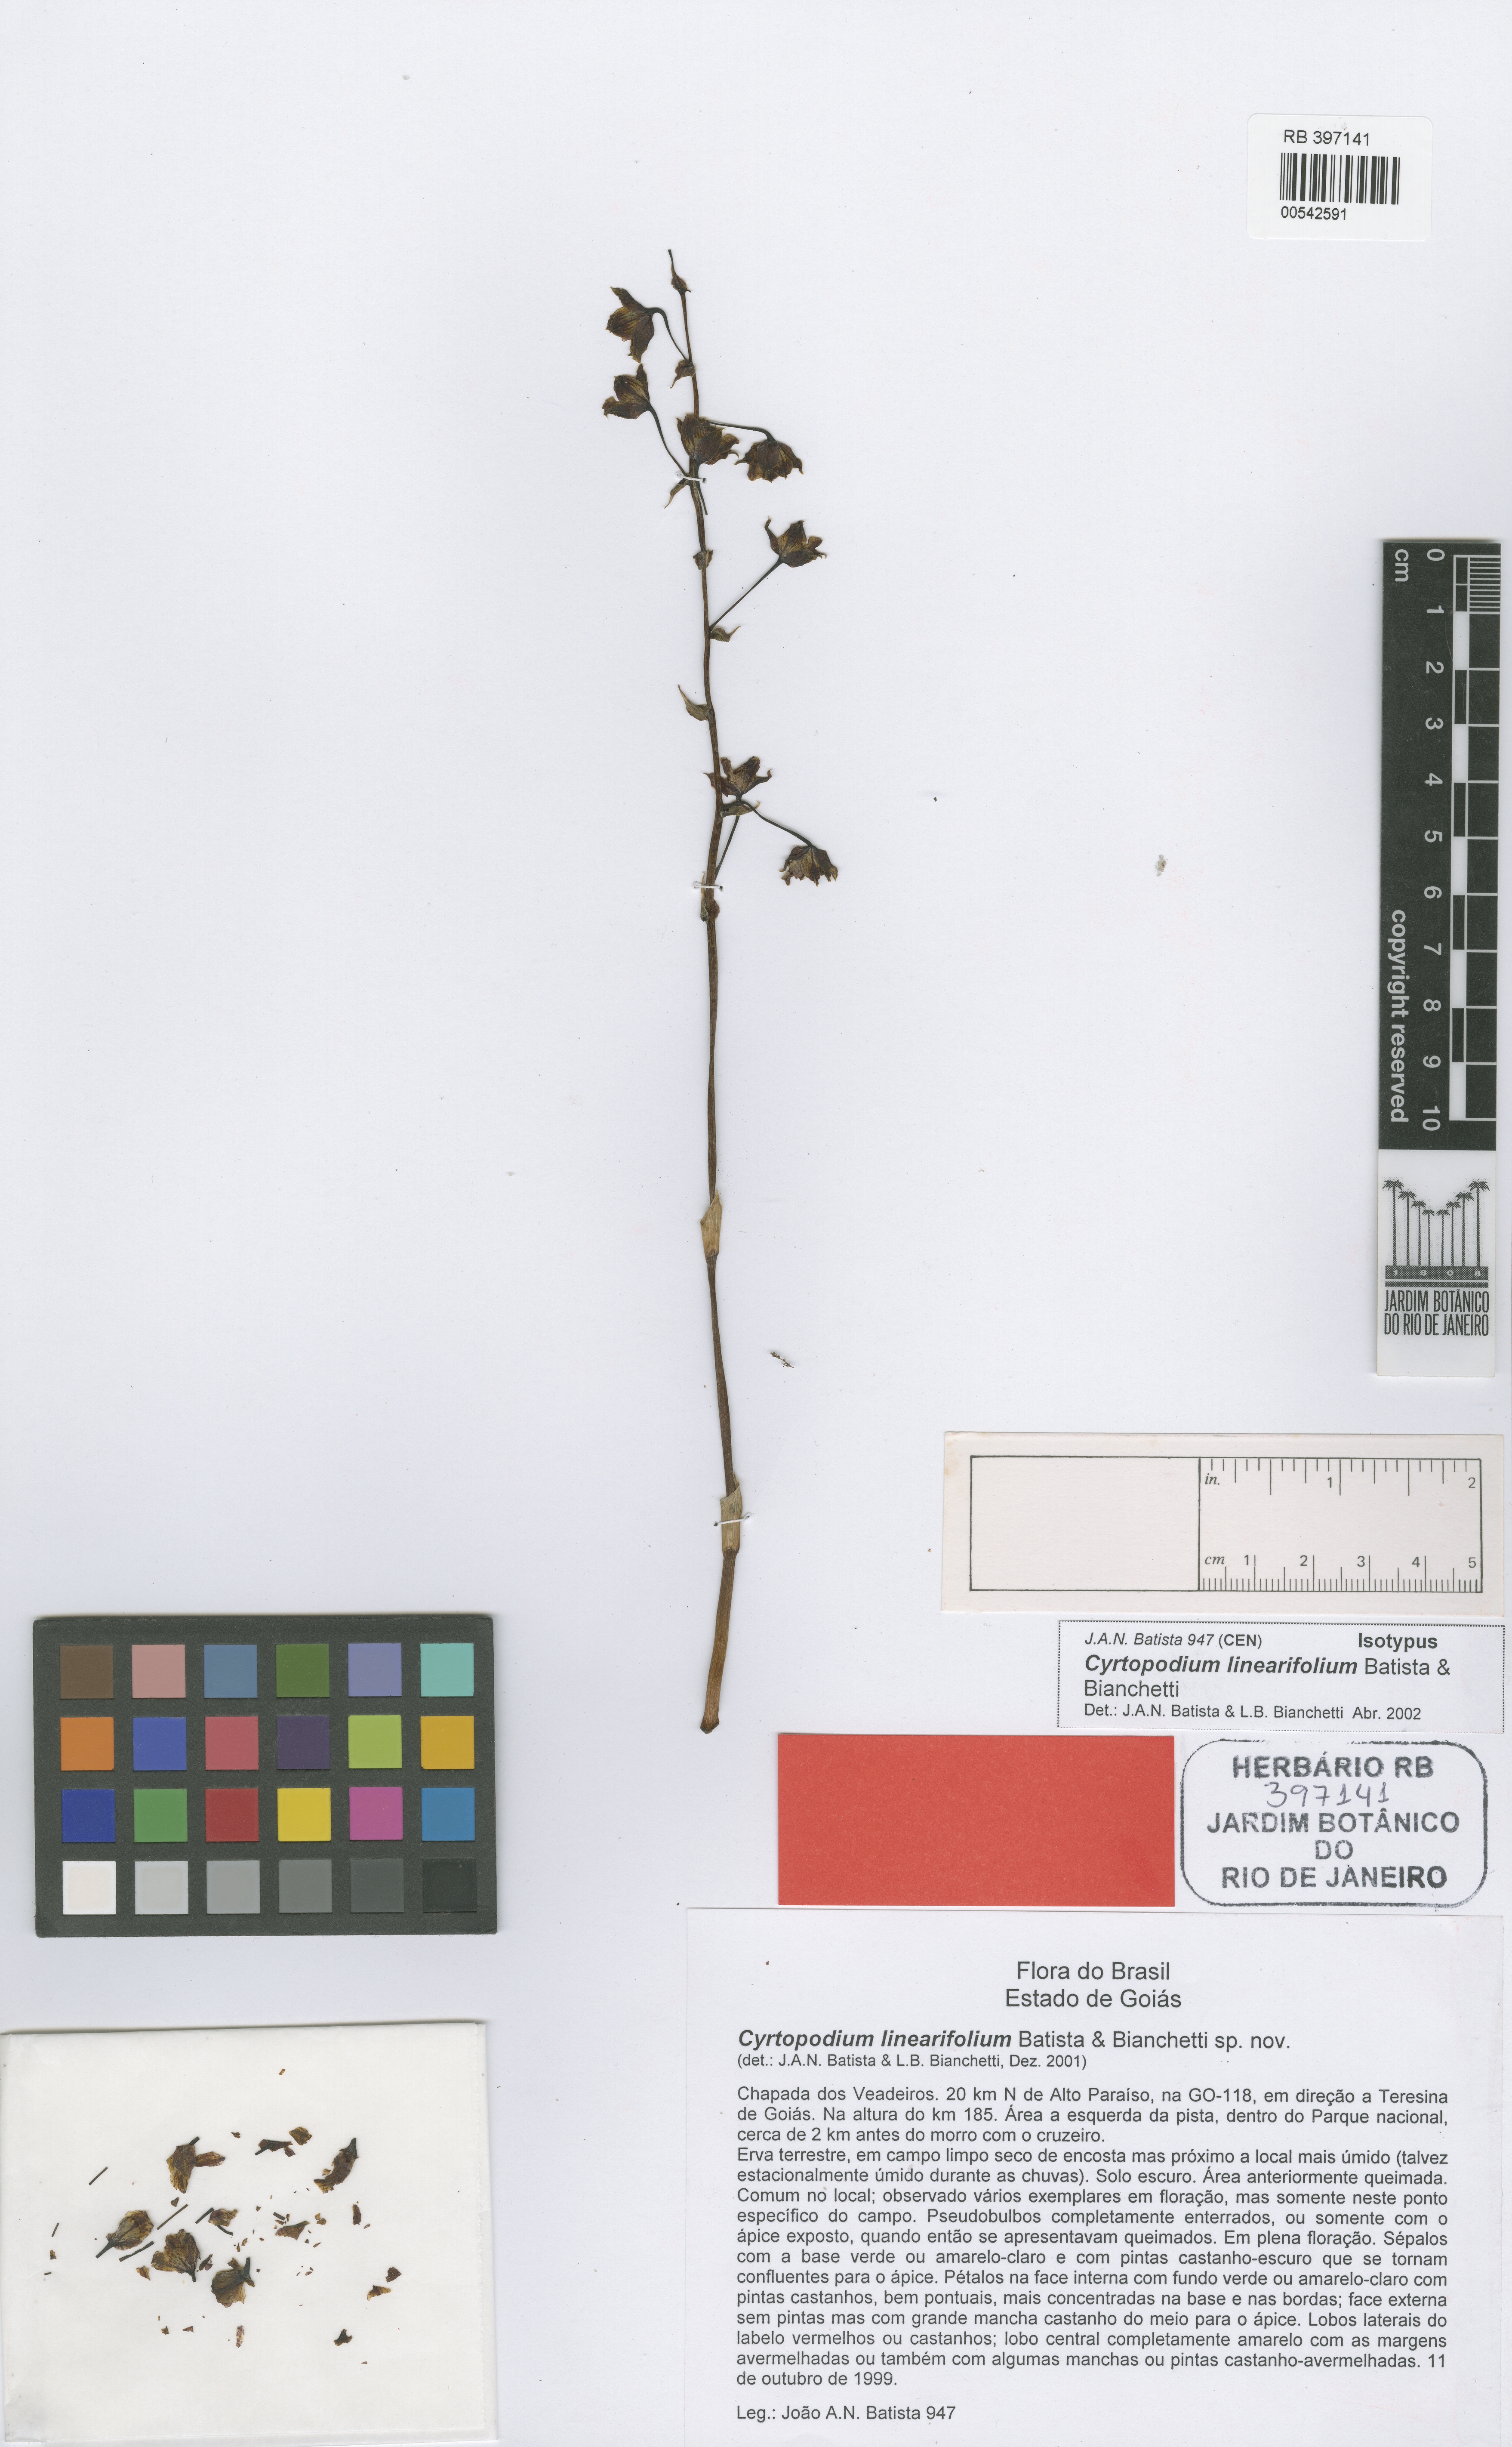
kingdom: Plantae
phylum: Tracheophyta
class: Liliopsida
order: Asparagales
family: Orchidaceae
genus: Cyrtopodium
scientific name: Cyrtopodium linearifolium
